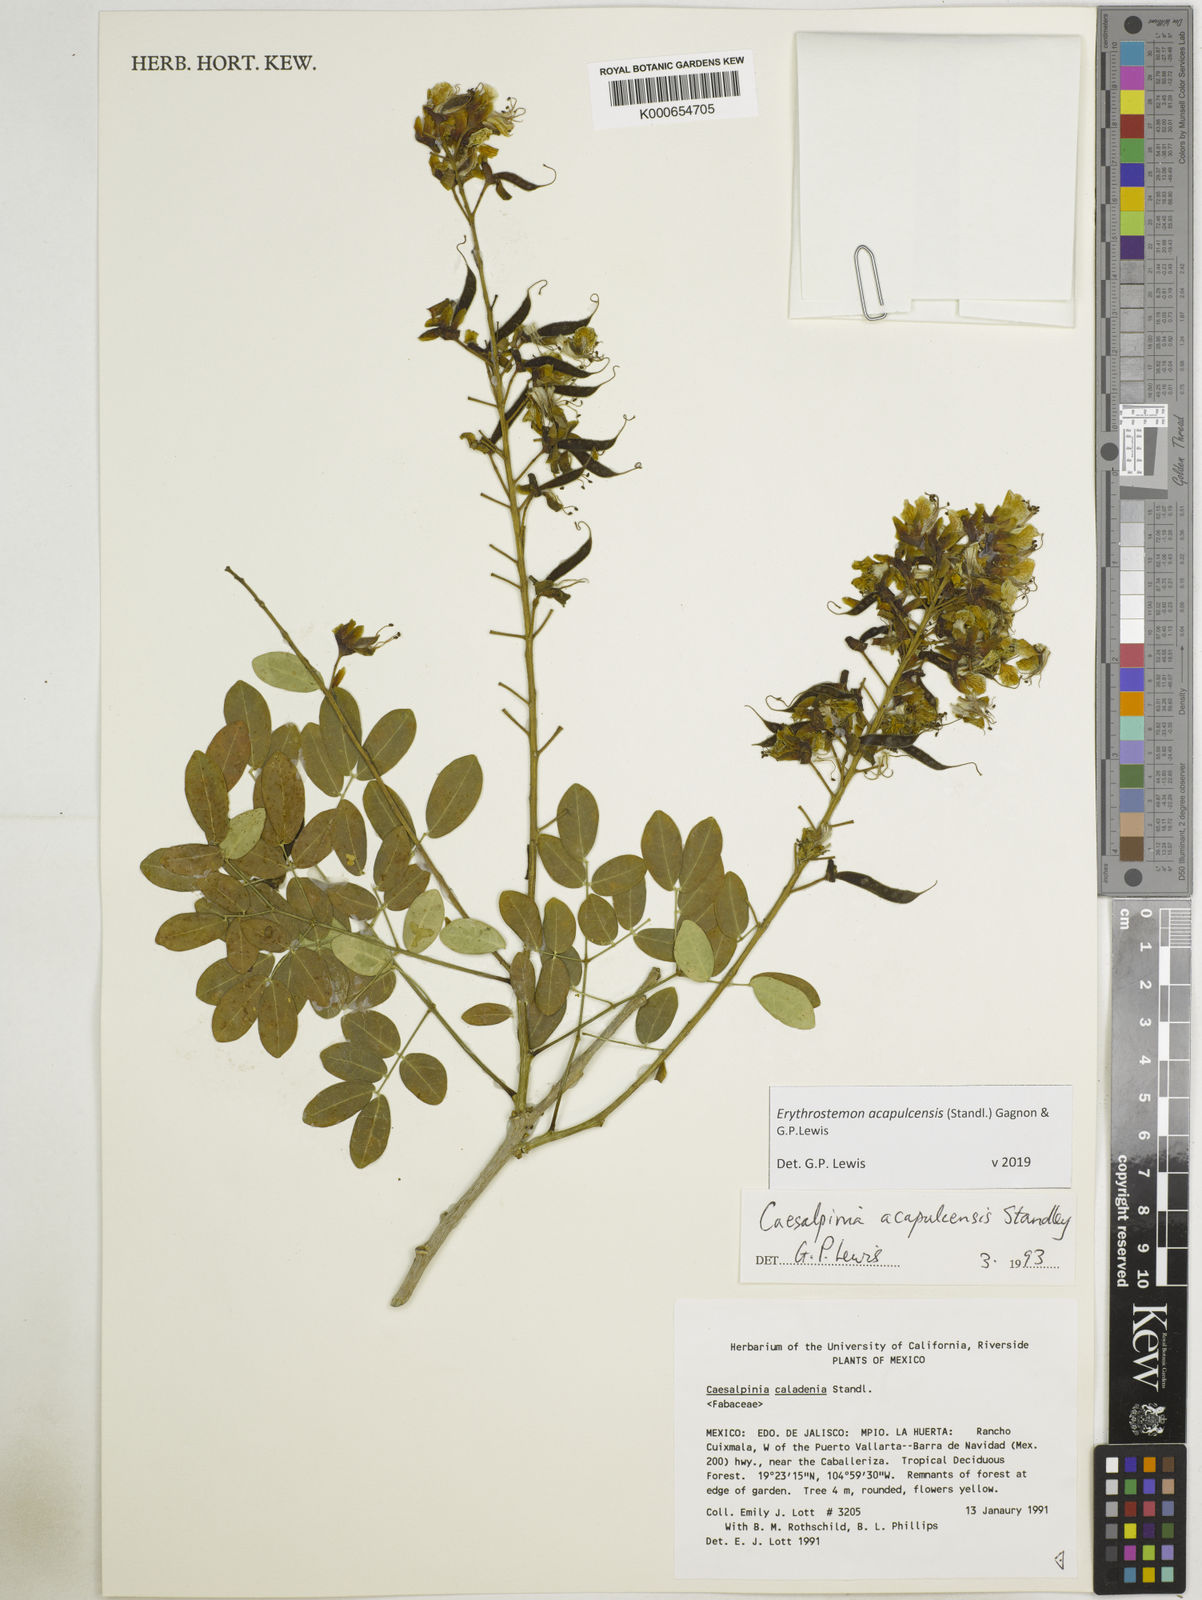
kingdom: Plantae
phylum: Tracheophyta
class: Magnoliopsida
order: Fabales
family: Fabaceae
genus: Erythrostemon
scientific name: Erythrostemon acapulcensis
